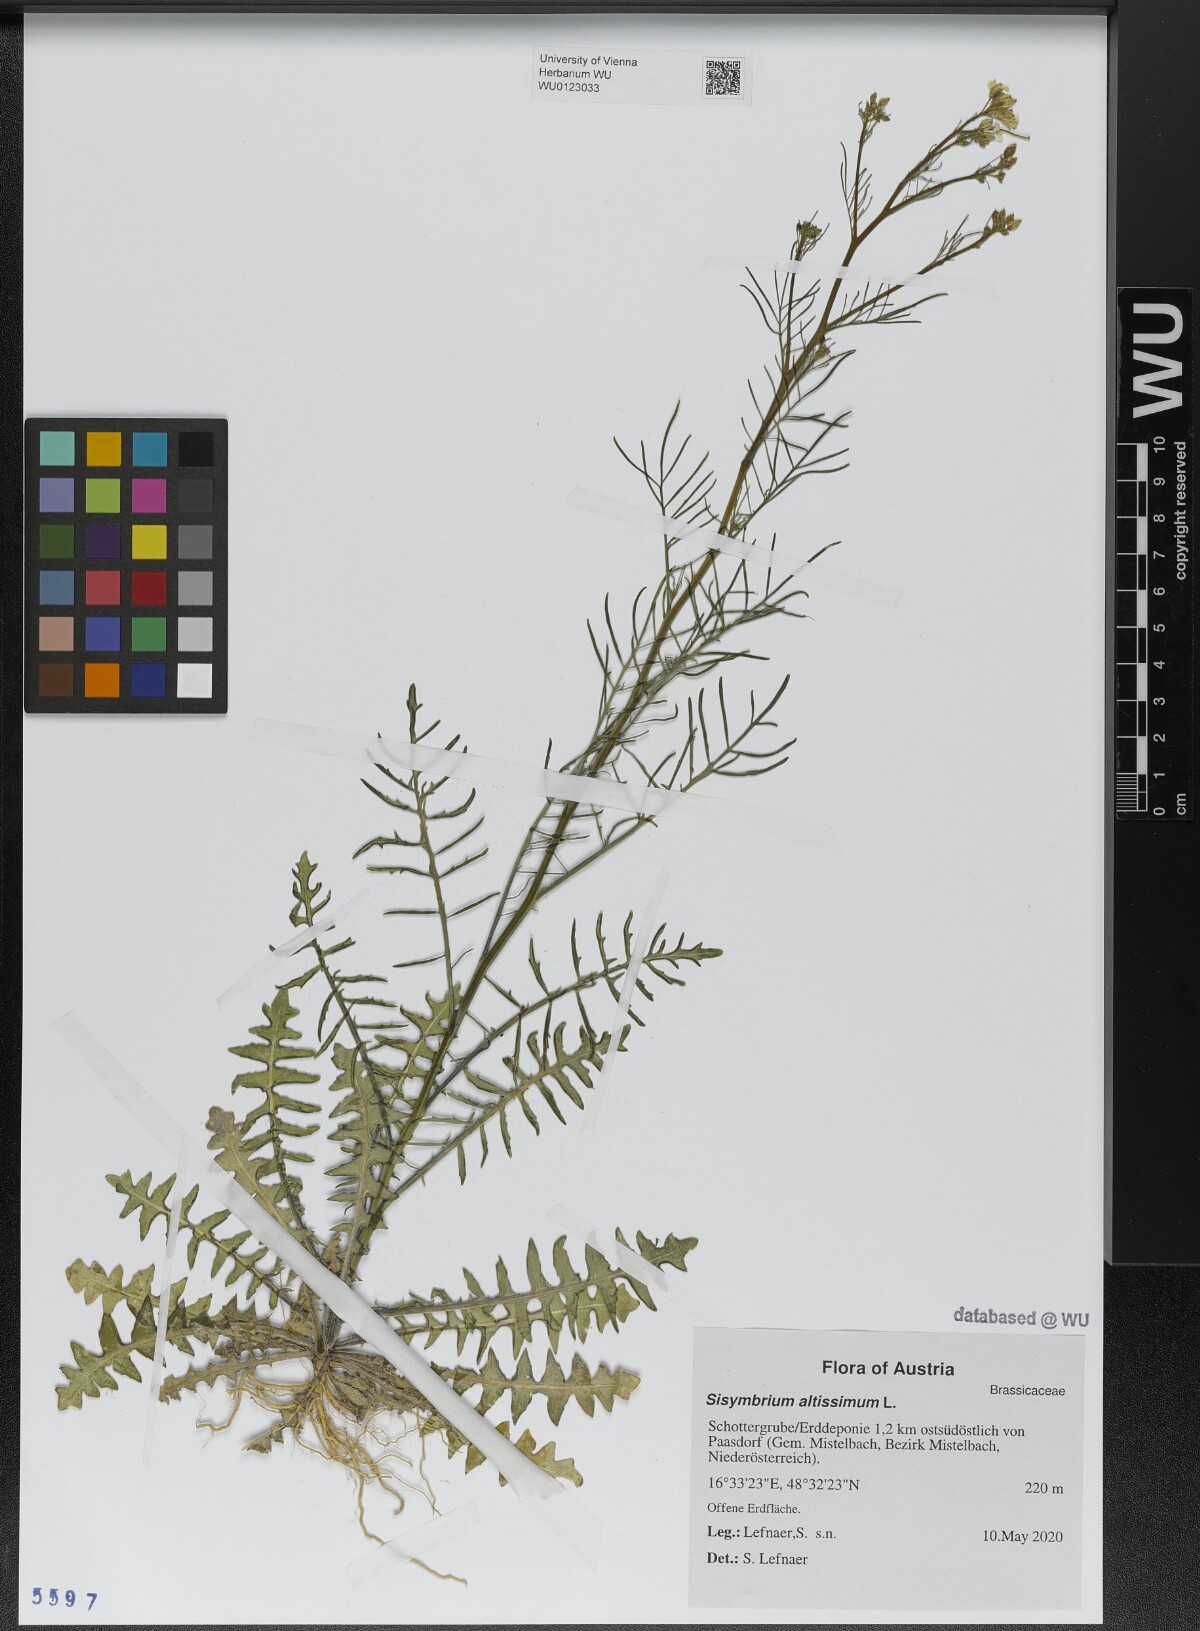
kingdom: Plantae
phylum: Tracheophyta
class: Magnoliopsida
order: Brassicales
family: Brassicaceae
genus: Sisymbrium
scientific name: Sisymbrium altissimum
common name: Tall rocket
